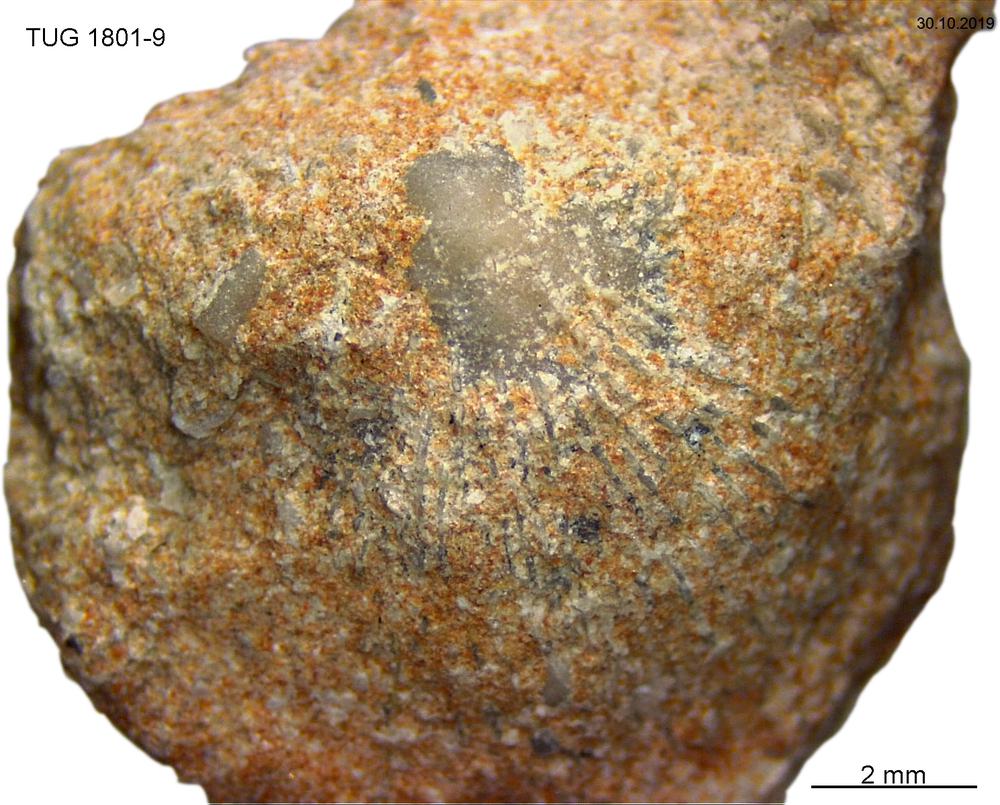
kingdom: Animalia
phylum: Brachiopoda
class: Craniata
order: Craniida
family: Craniidae
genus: Philhedra
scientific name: Philhedra
